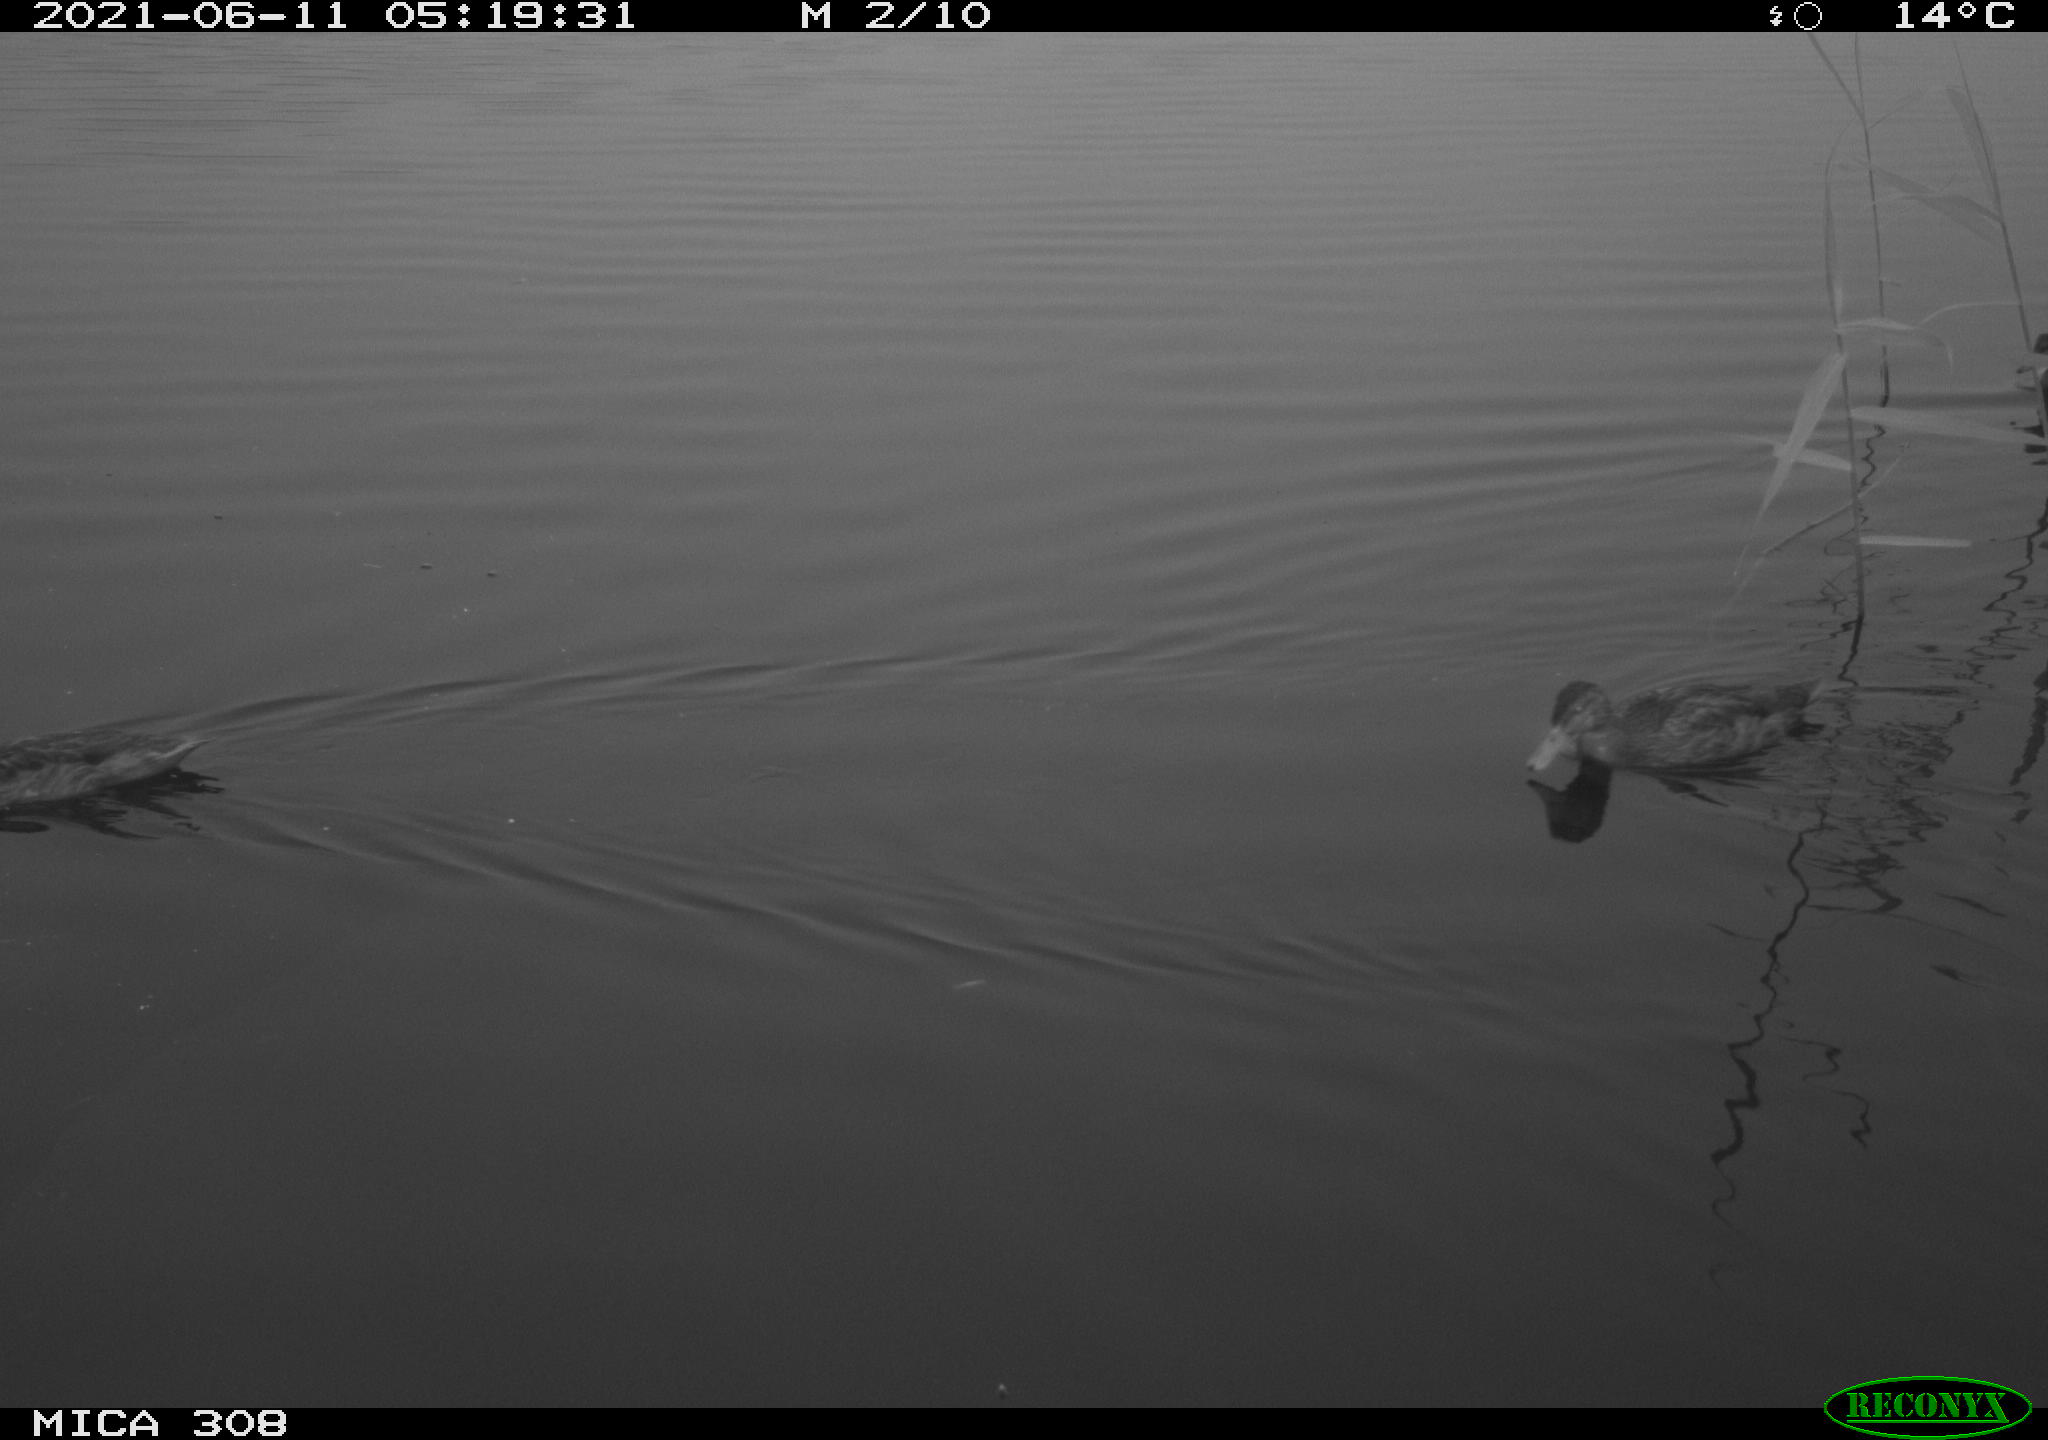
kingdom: Animalia
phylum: Chordata
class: Aves
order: Anseriformes
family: Anatidae
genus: Mareca
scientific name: Mareca strepera
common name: Gadwall
